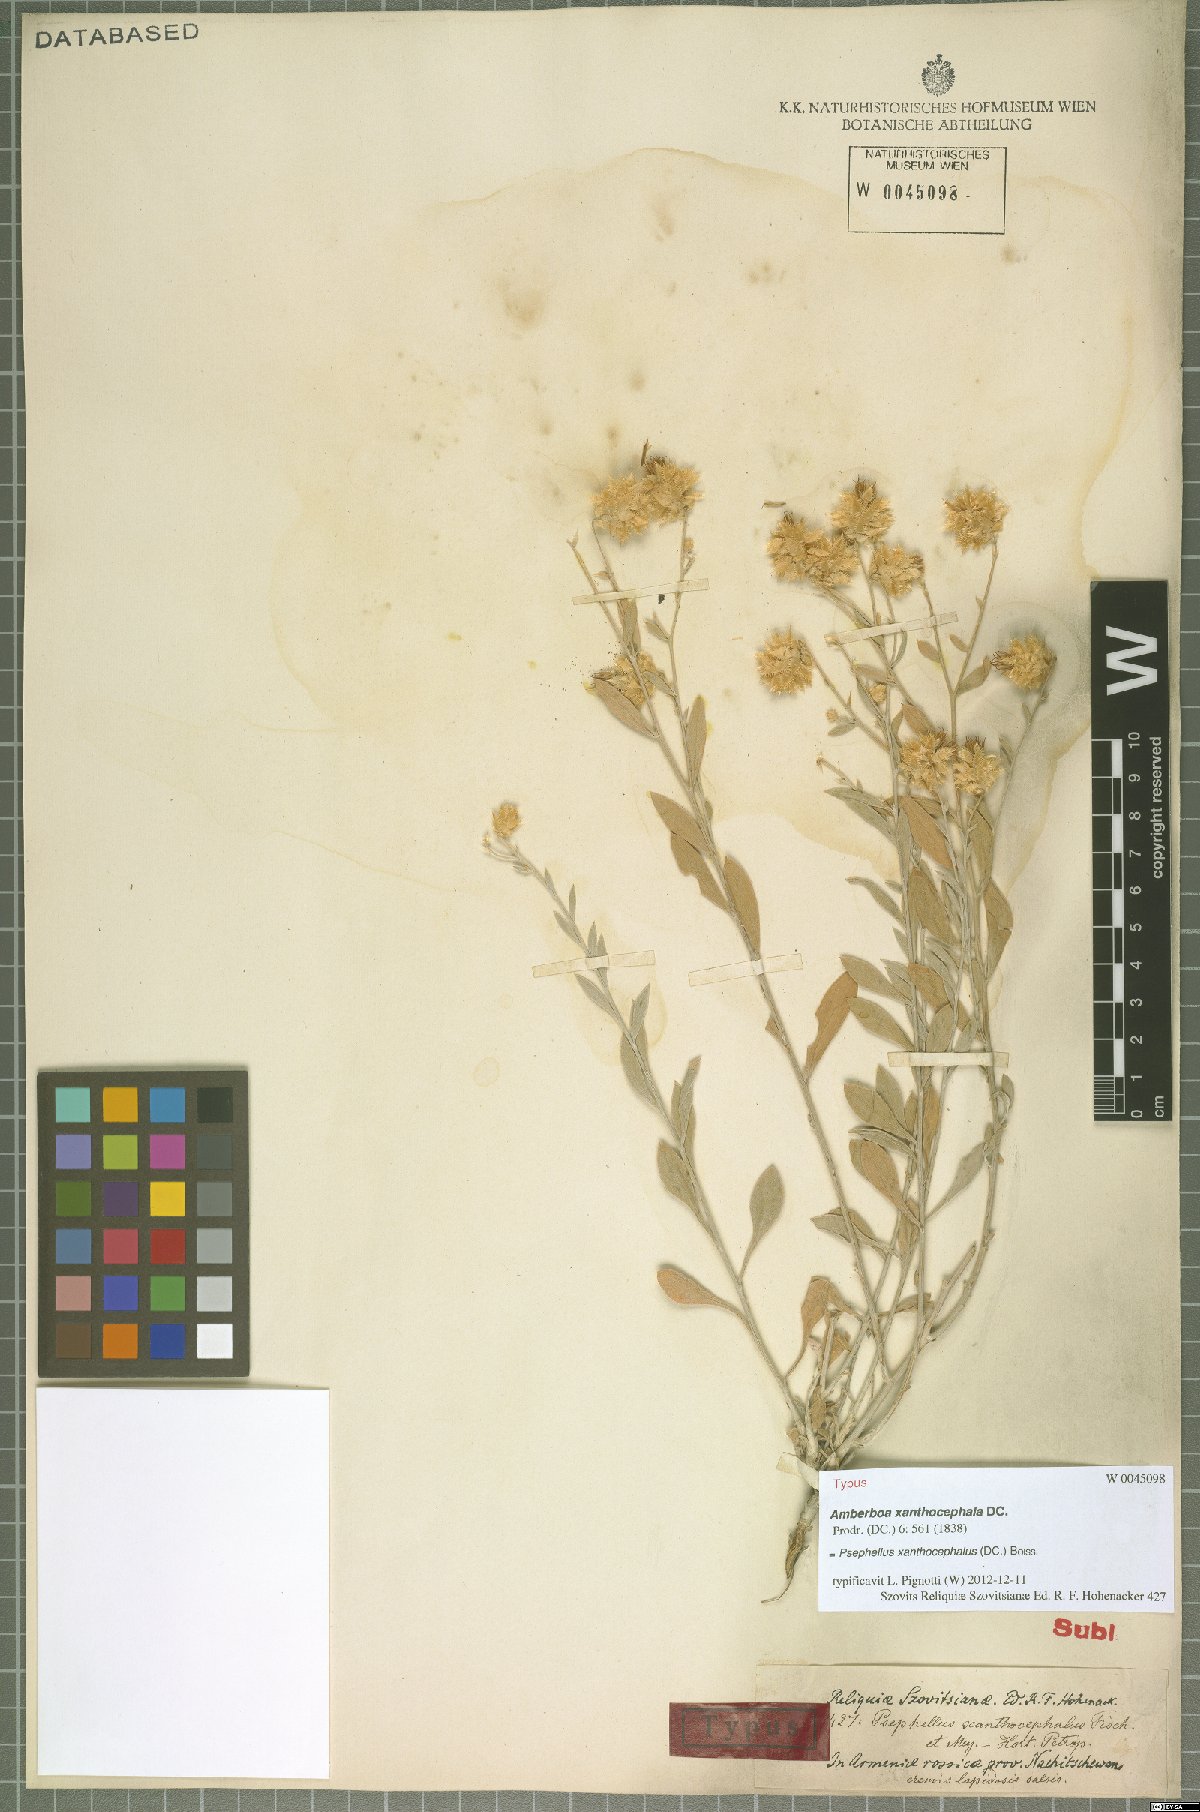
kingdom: Plantae
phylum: Tracheophyta
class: Magnoliopsida
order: Asterales
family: Asteraceae
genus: Psephellus
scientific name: Psephellus xanthocephalus
